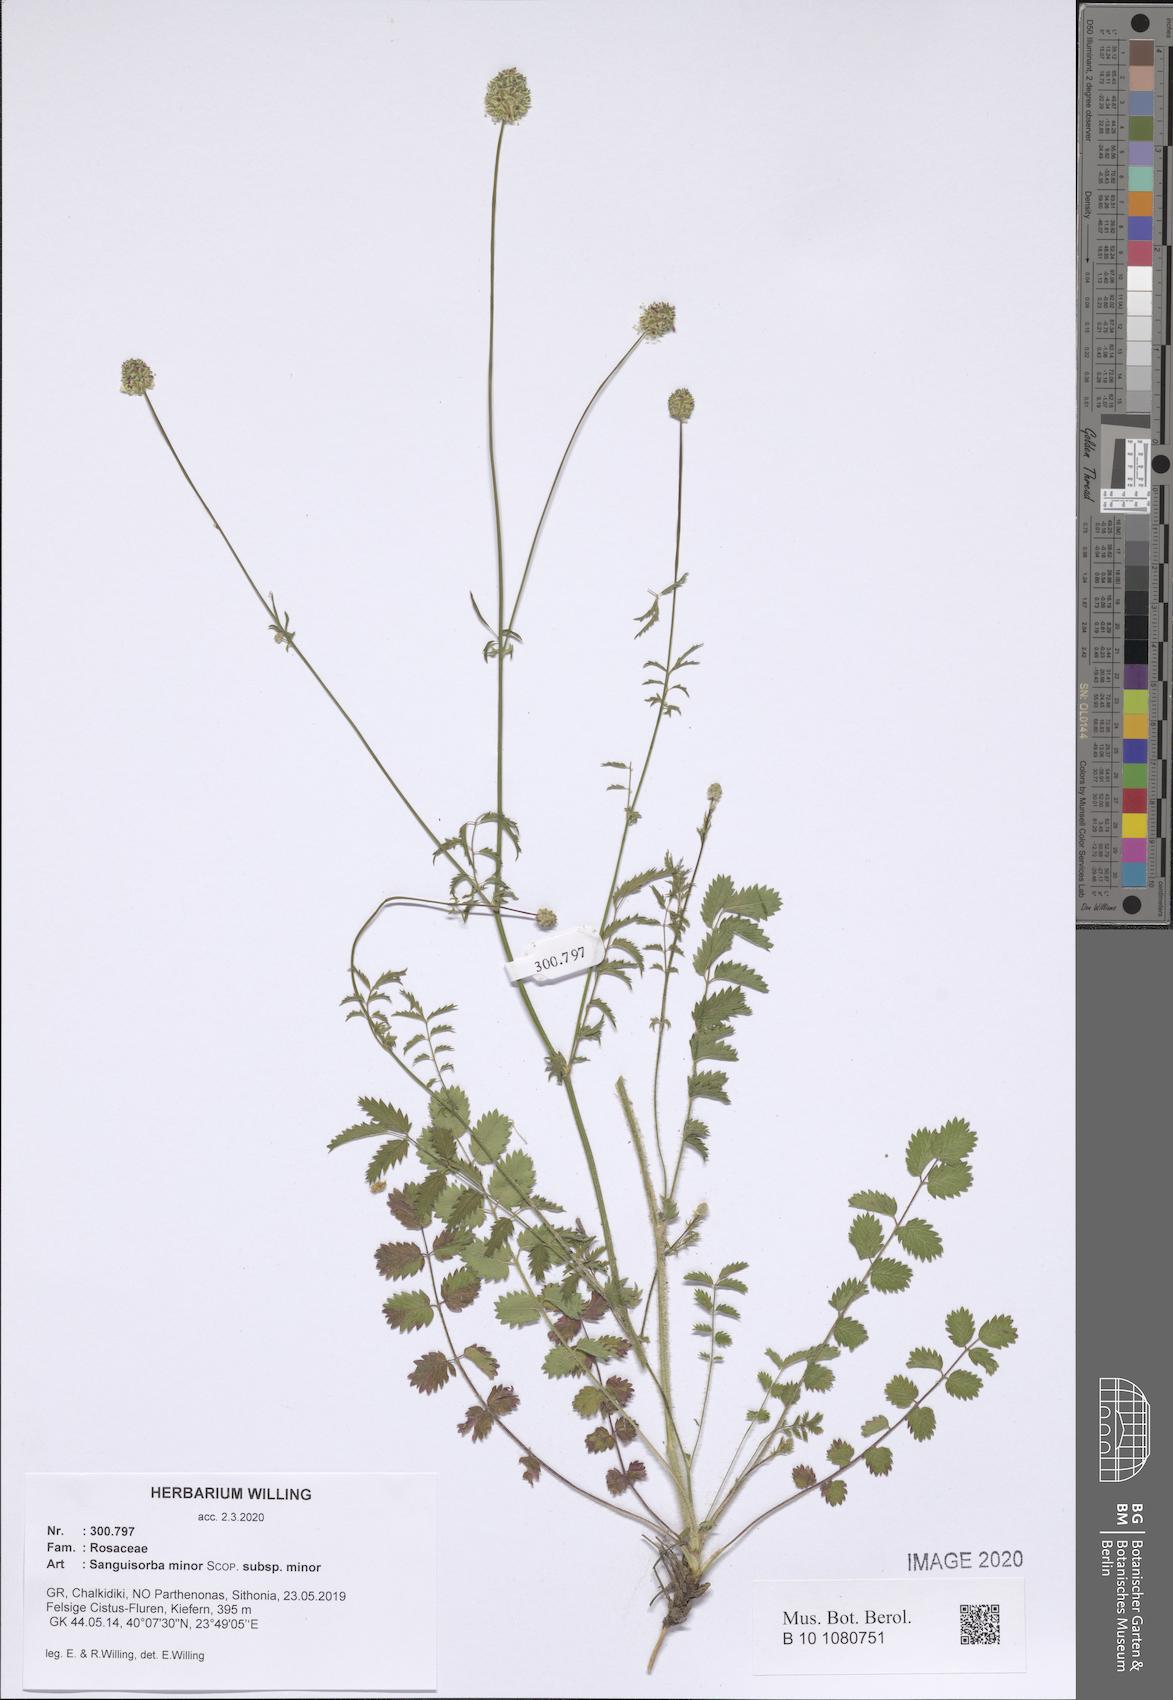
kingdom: Plantae
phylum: Tracheophyta
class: Magnoliopsida
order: Rosales
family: Rosaceae
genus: Poterium
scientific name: Poterium sanguisorba
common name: Salad burnet
